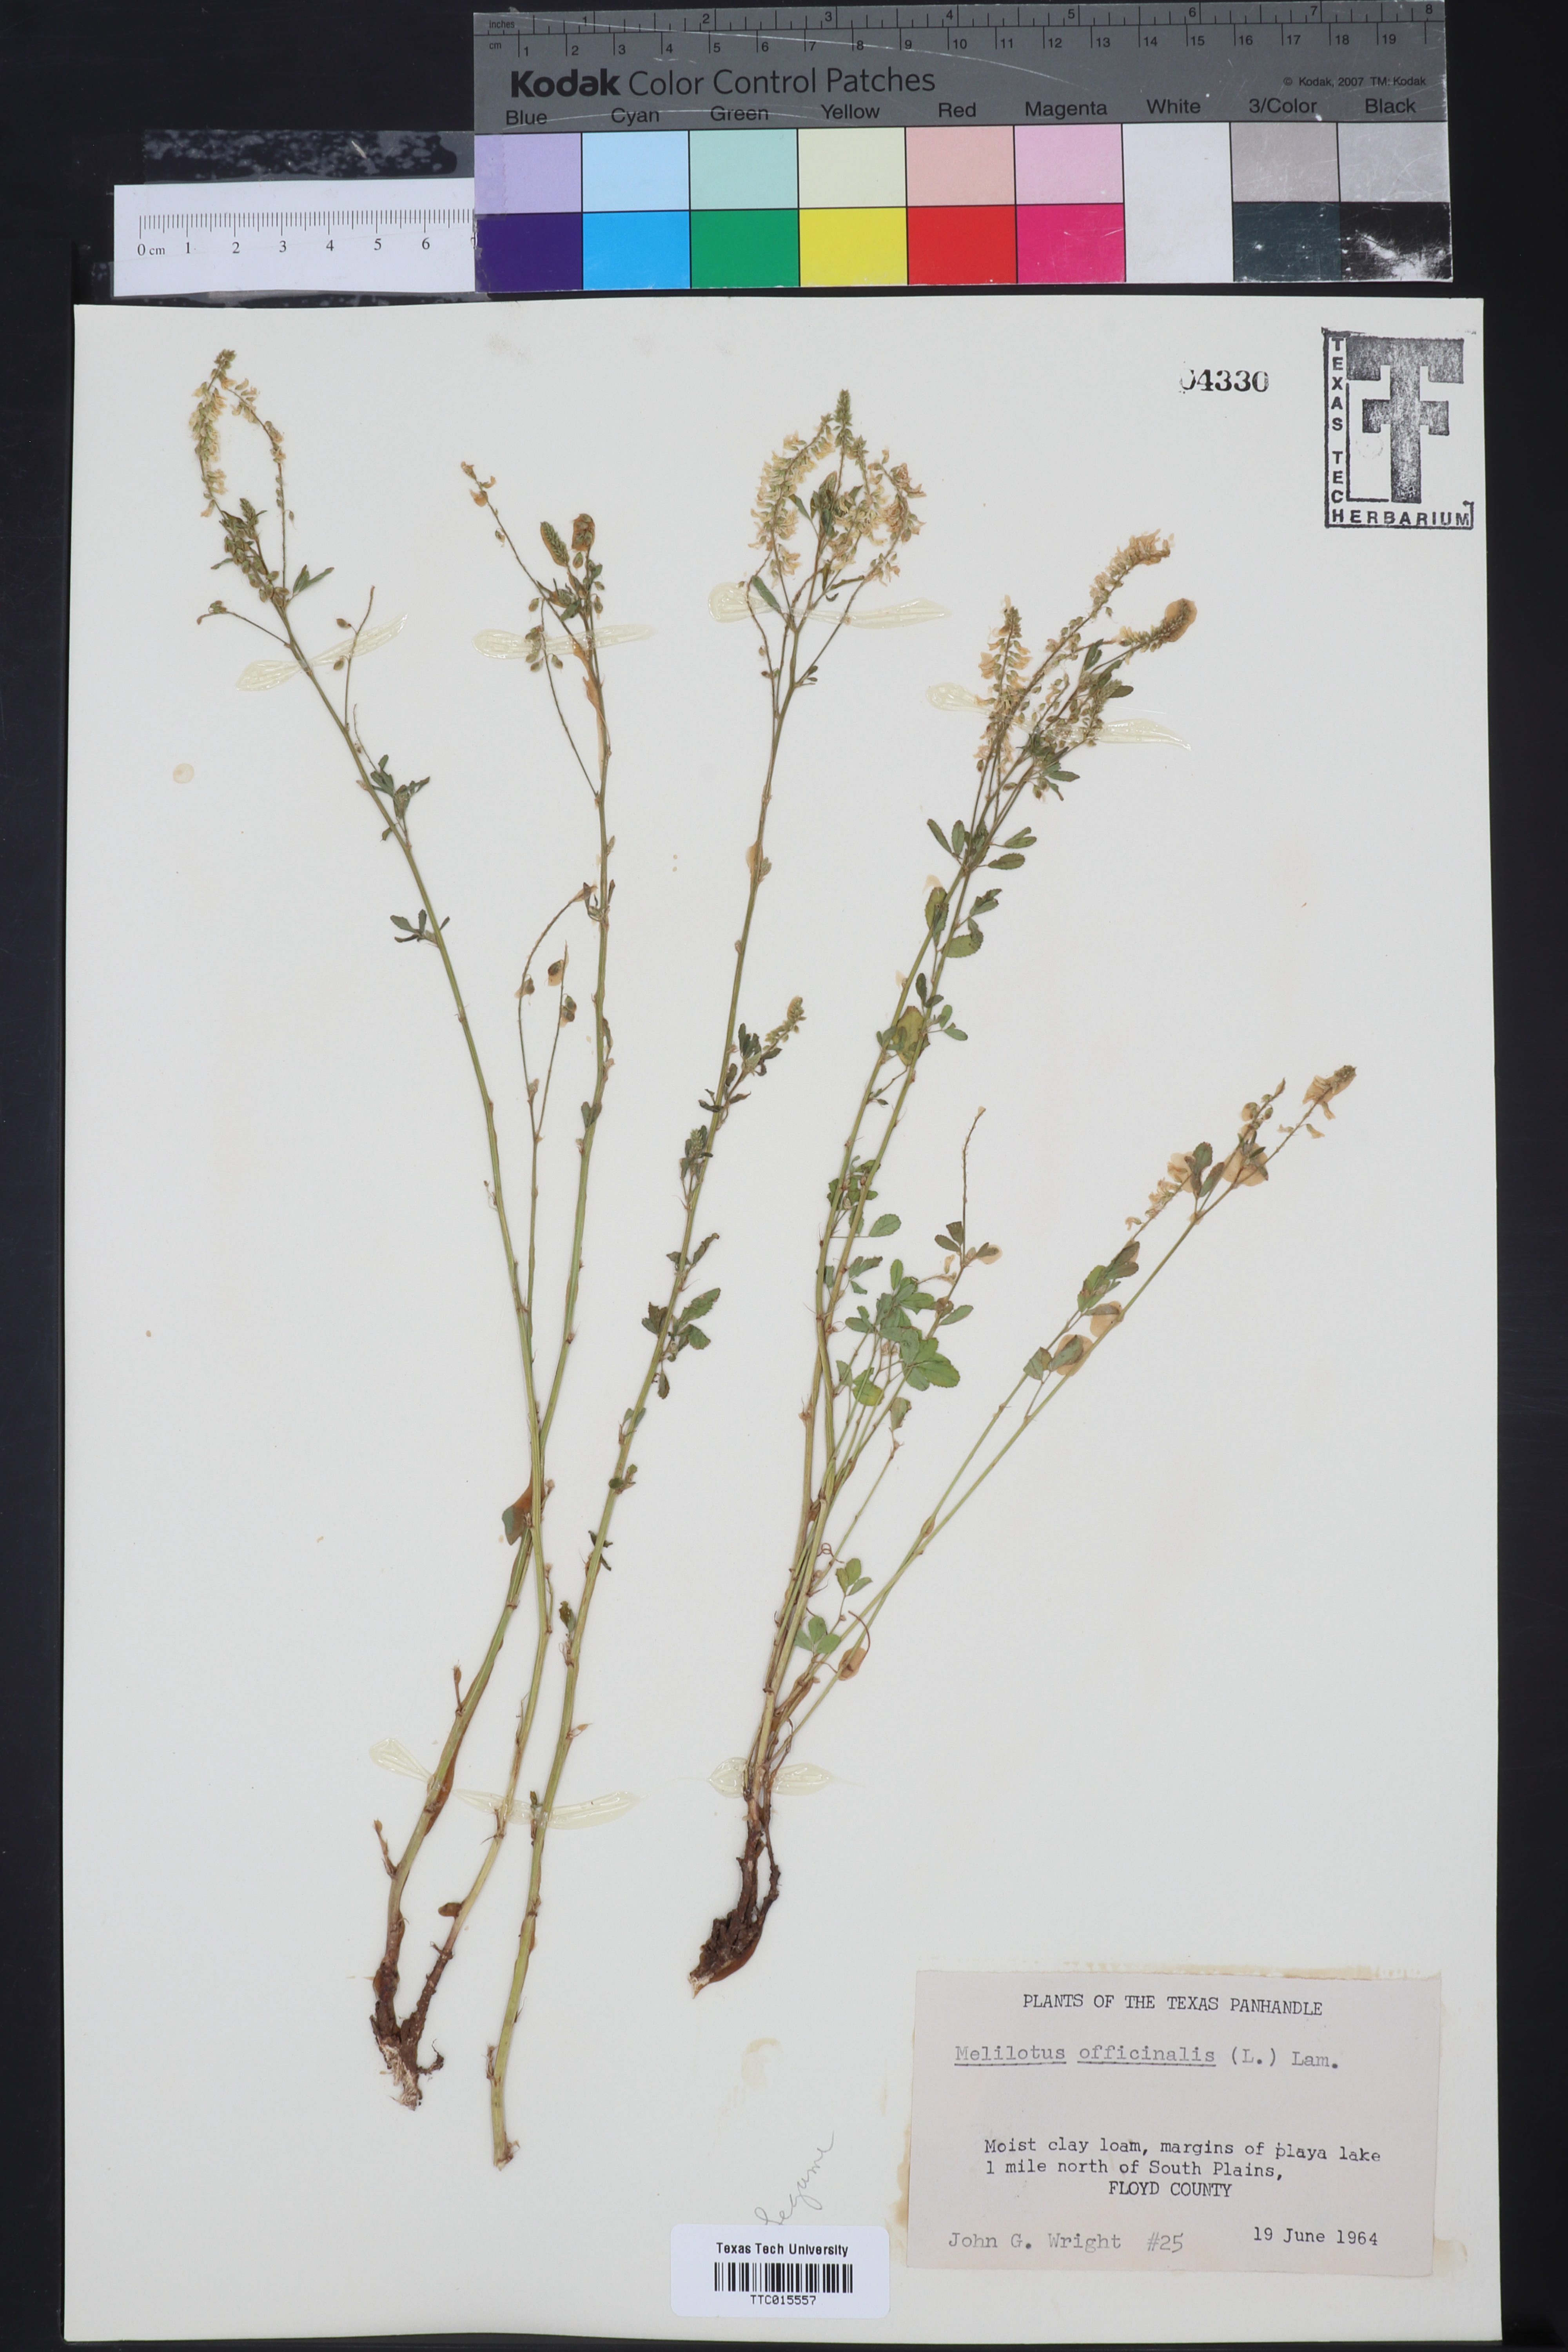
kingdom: Plantae
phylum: Tracheophyta
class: Magnoliopsida
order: Fabales
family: Fabaceae
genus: Melilotus
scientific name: Melilotus officinalis
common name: Sweetclover
